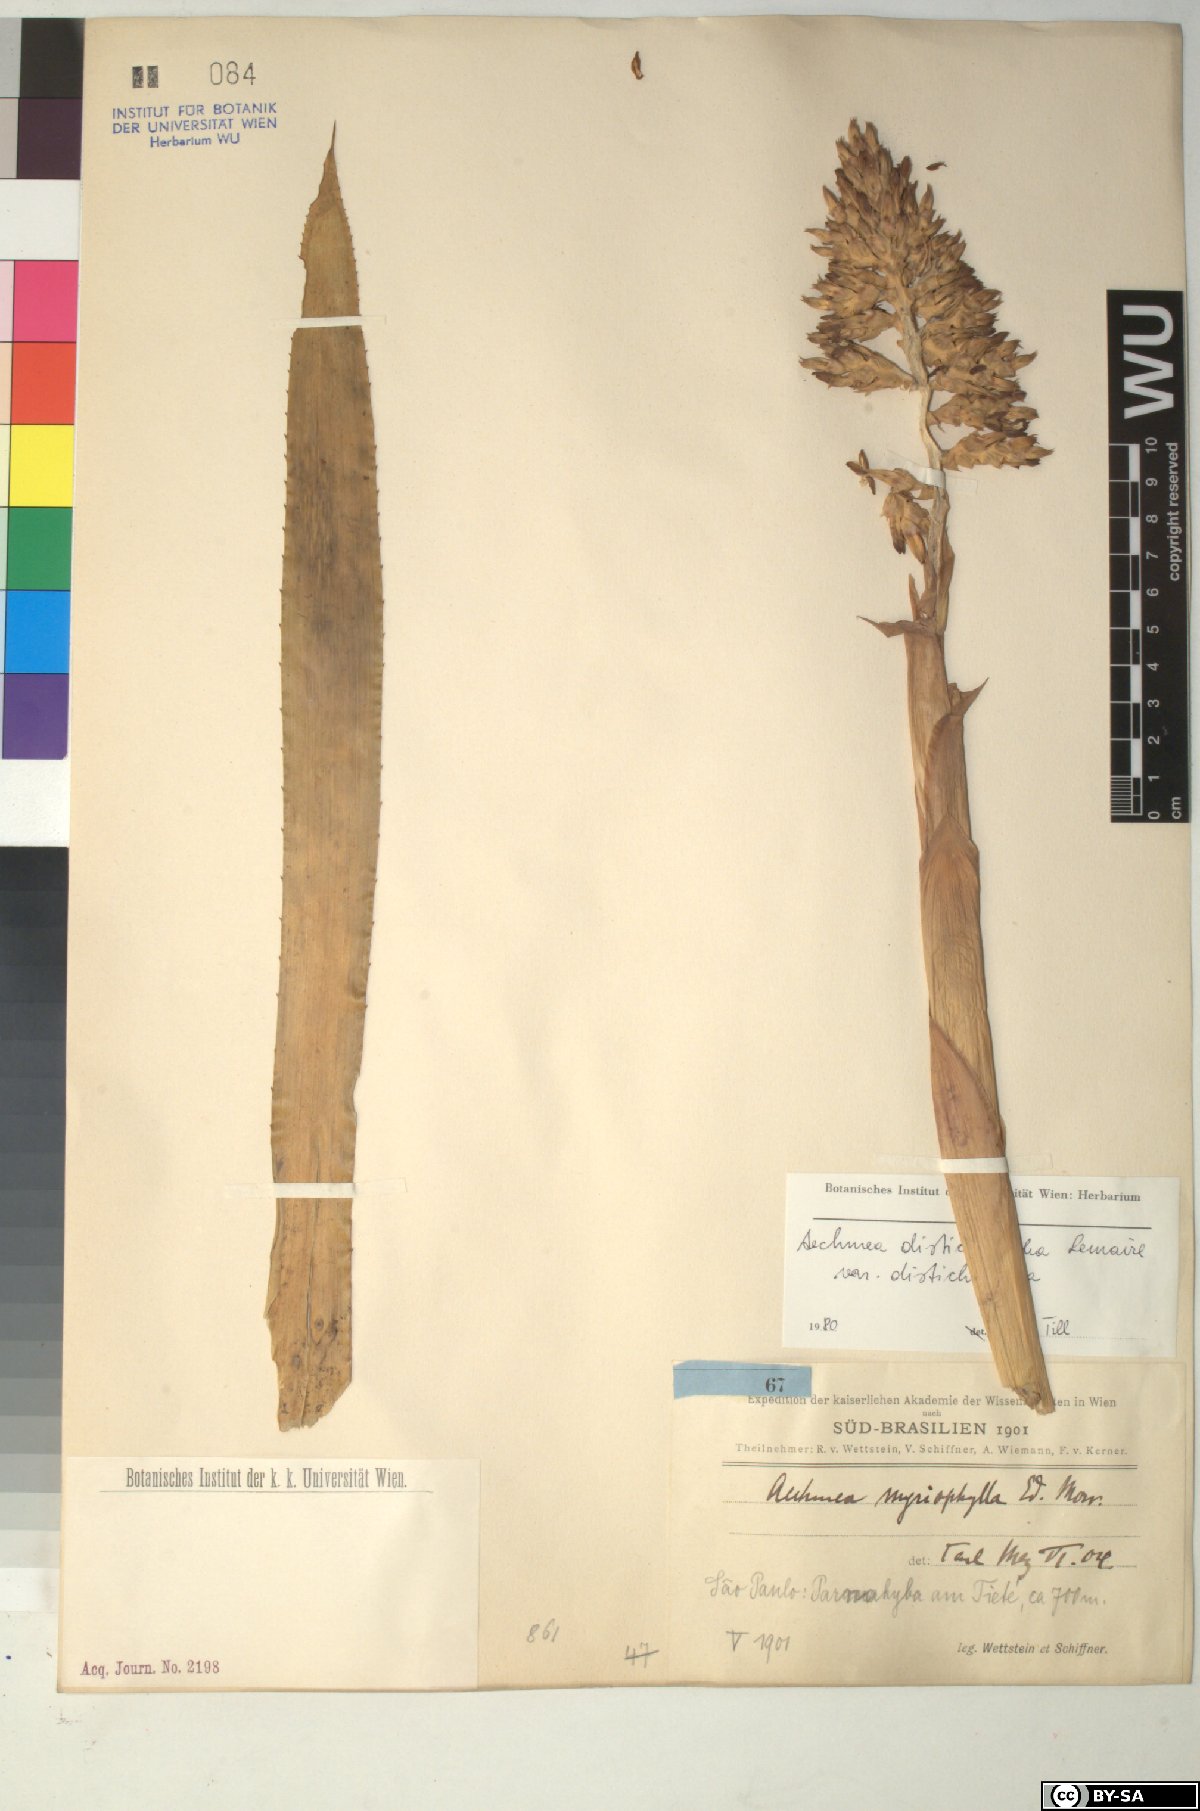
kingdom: Plantae
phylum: Tracheophyta
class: Liliopsida
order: Poales
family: Bromeliaceae
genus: Aechmea
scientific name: Aechmea
